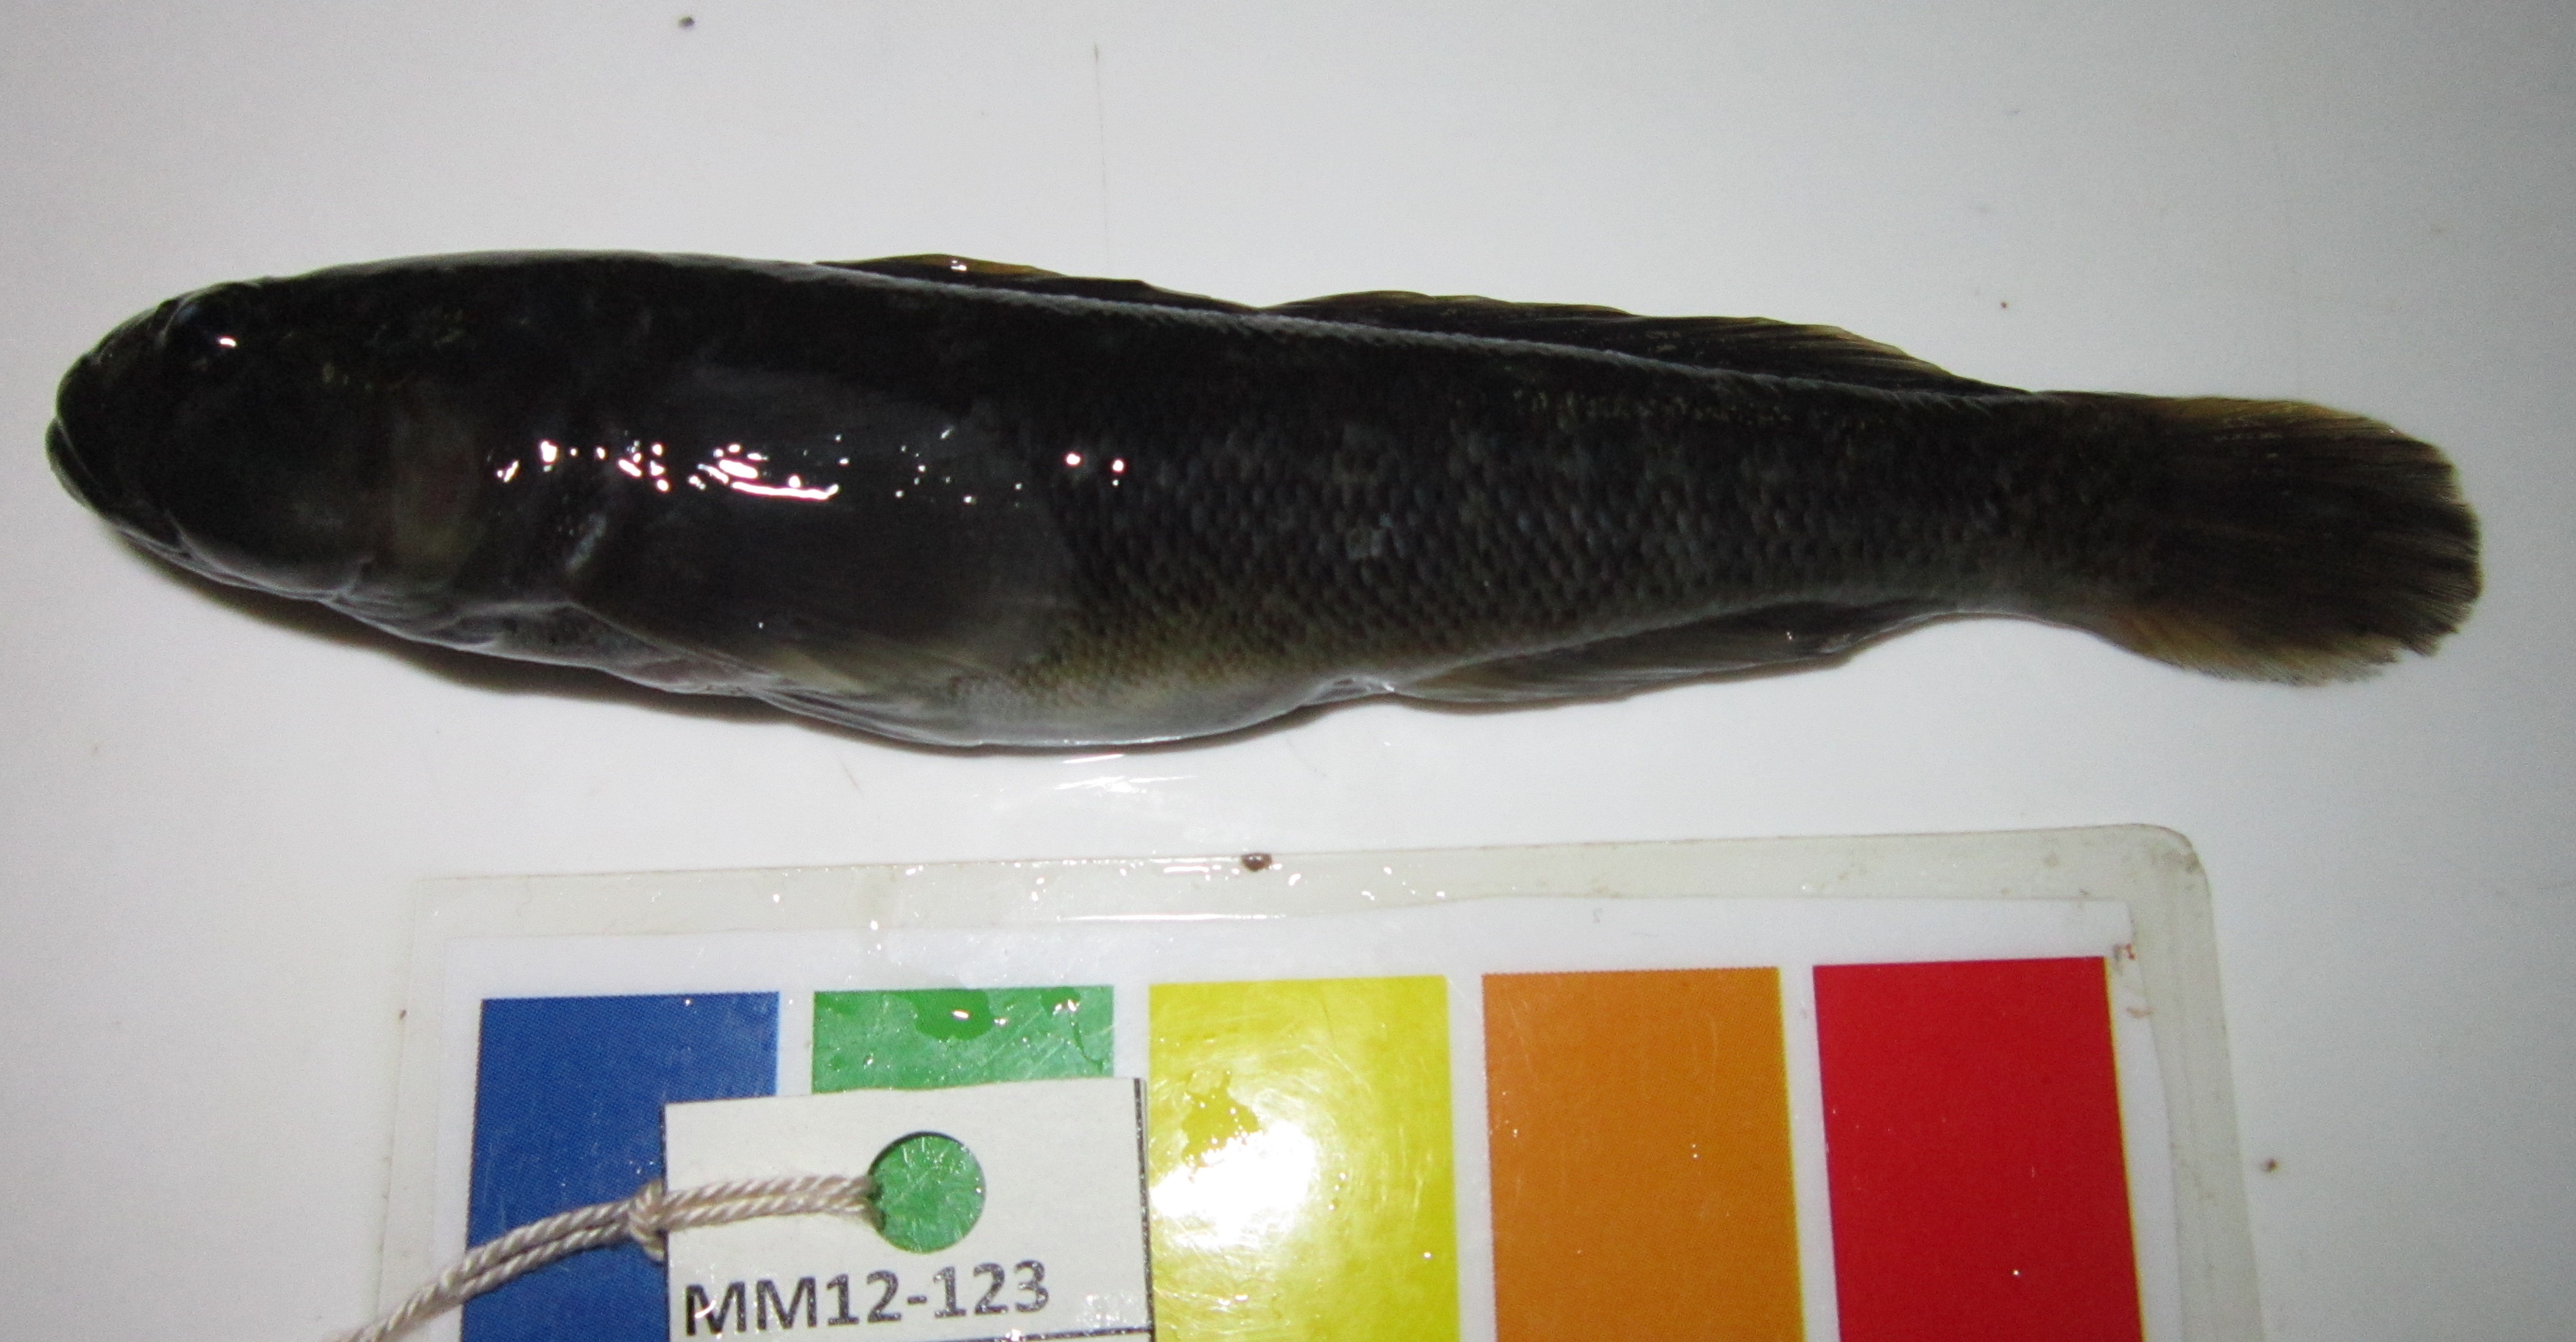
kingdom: Animalia
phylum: Chordata
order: Perciformes
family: Gobiidae
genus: Caffrogobius
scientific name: Caffrogobius caffer
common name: Banded goby
